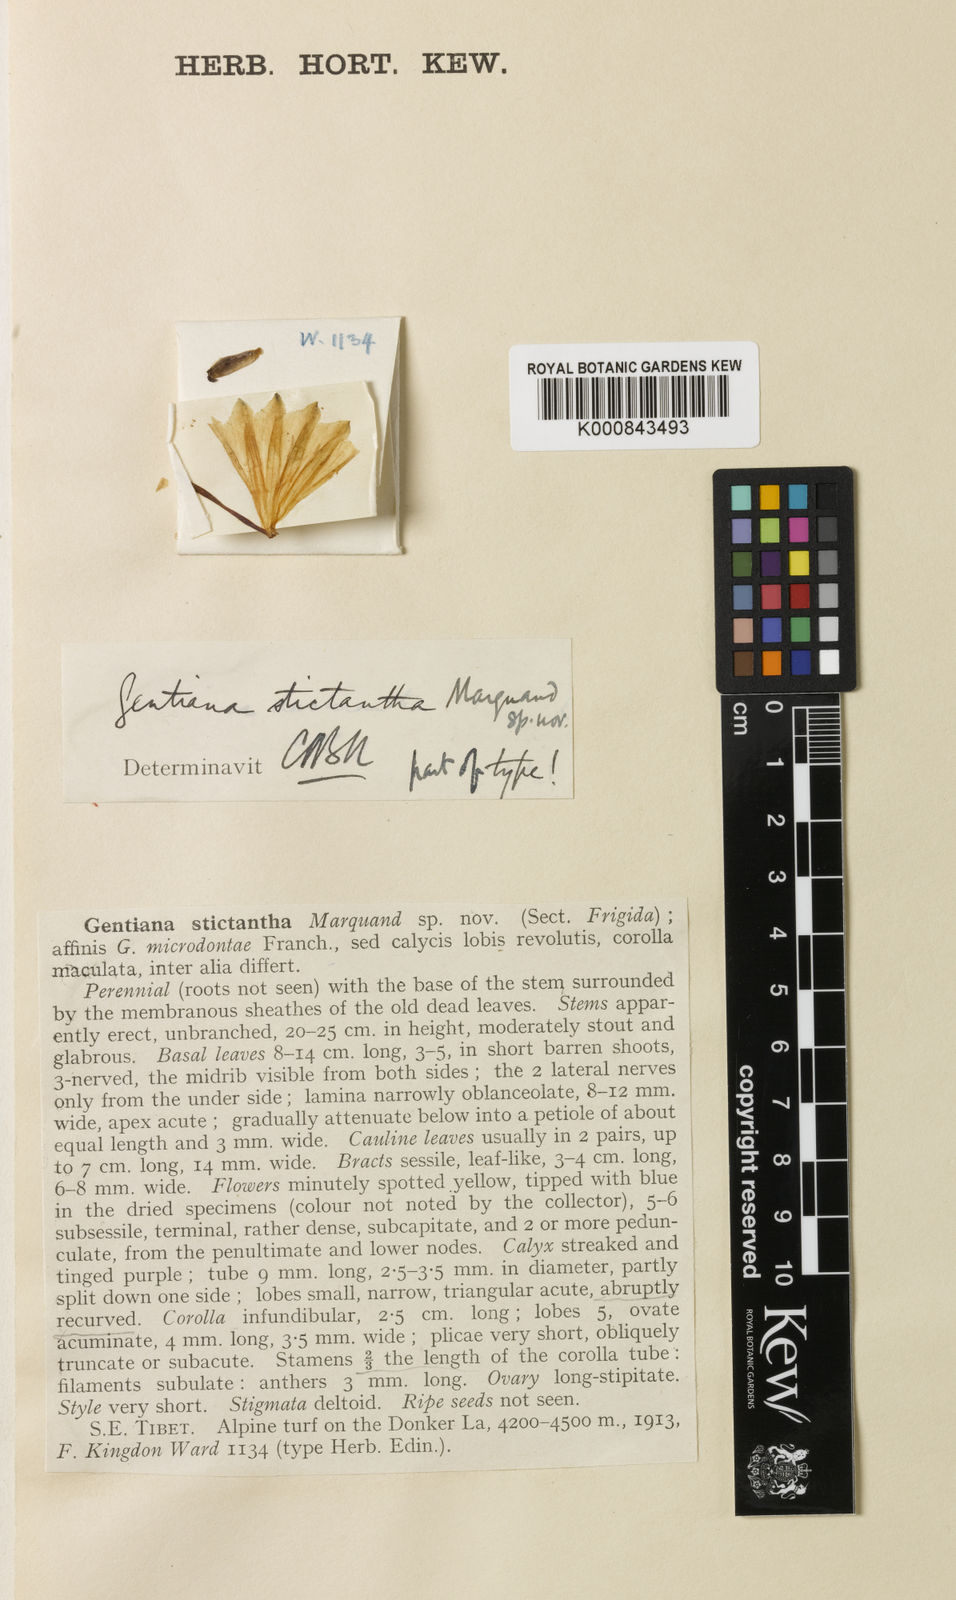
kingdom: Plantae
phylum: Tracheophyta
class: Magnoliopsida
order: Gentianales
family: Gentianaceae
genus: Gentiana
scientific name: Gentiana
